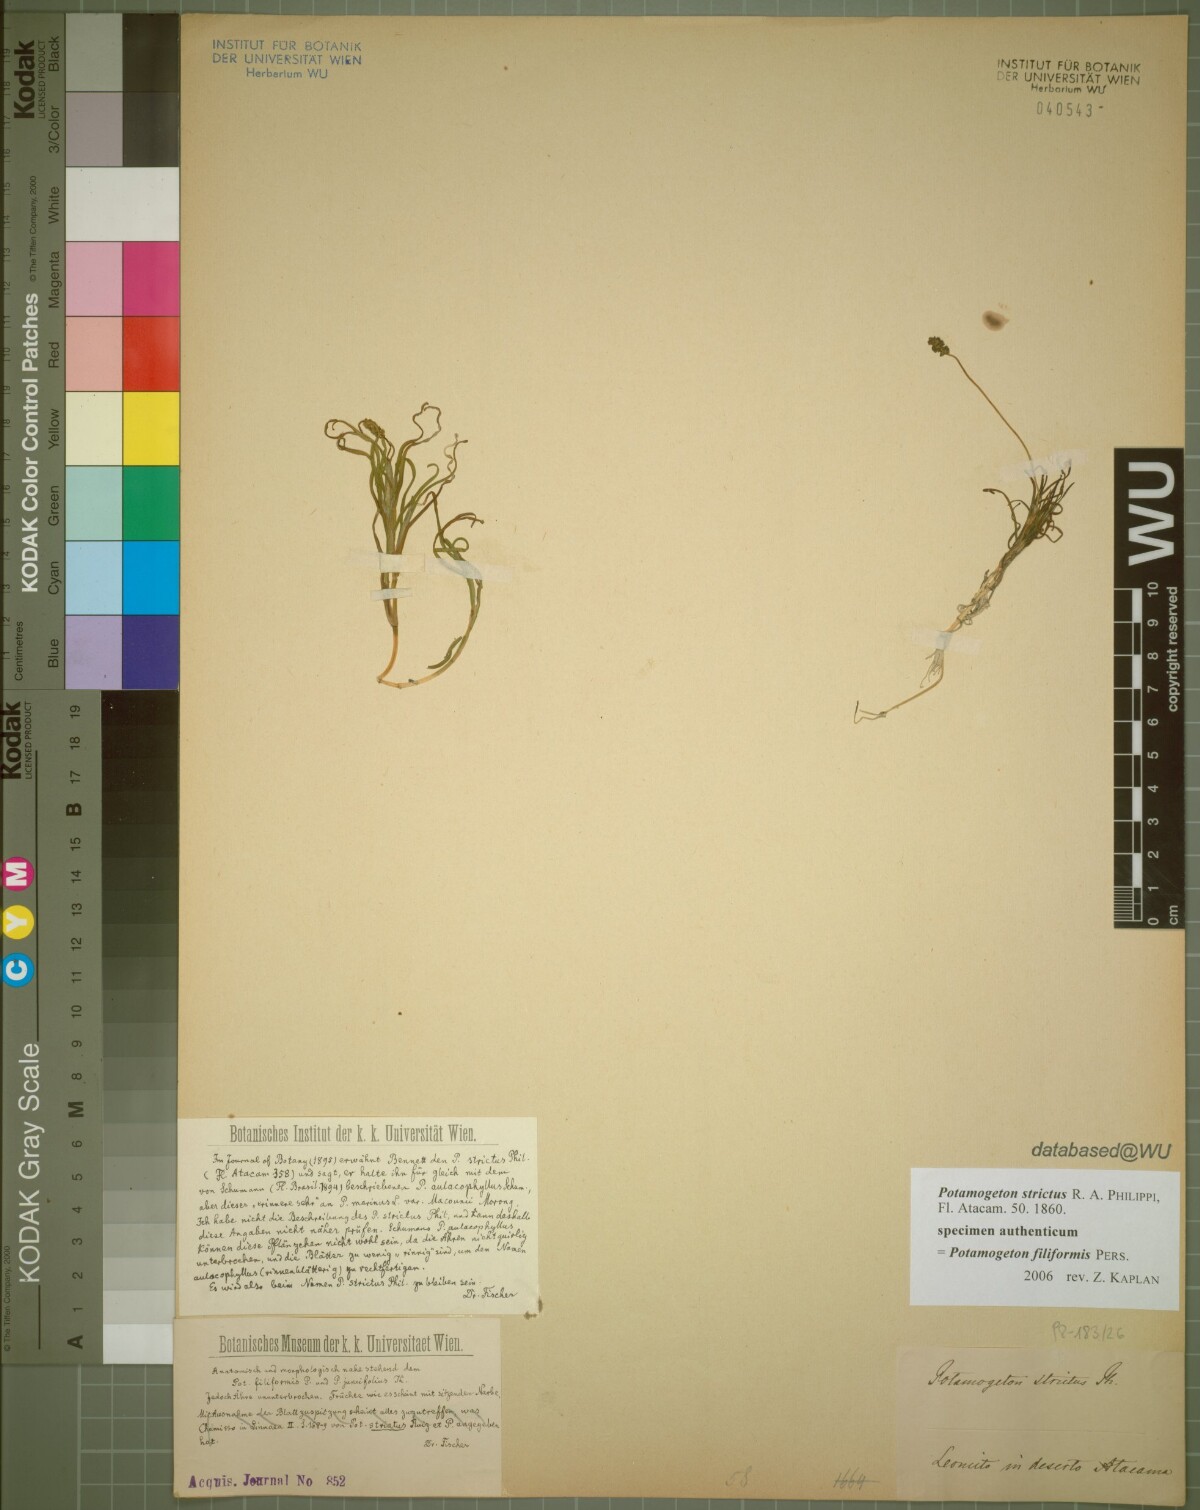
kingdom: Plantae
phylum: Tracheophyta
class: Liliopsida
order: Alismatales
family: Potamogetonaceae
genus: Stuckenia
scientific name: Stuckenia filiformis
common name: Alpine thread-leaved pondweed
